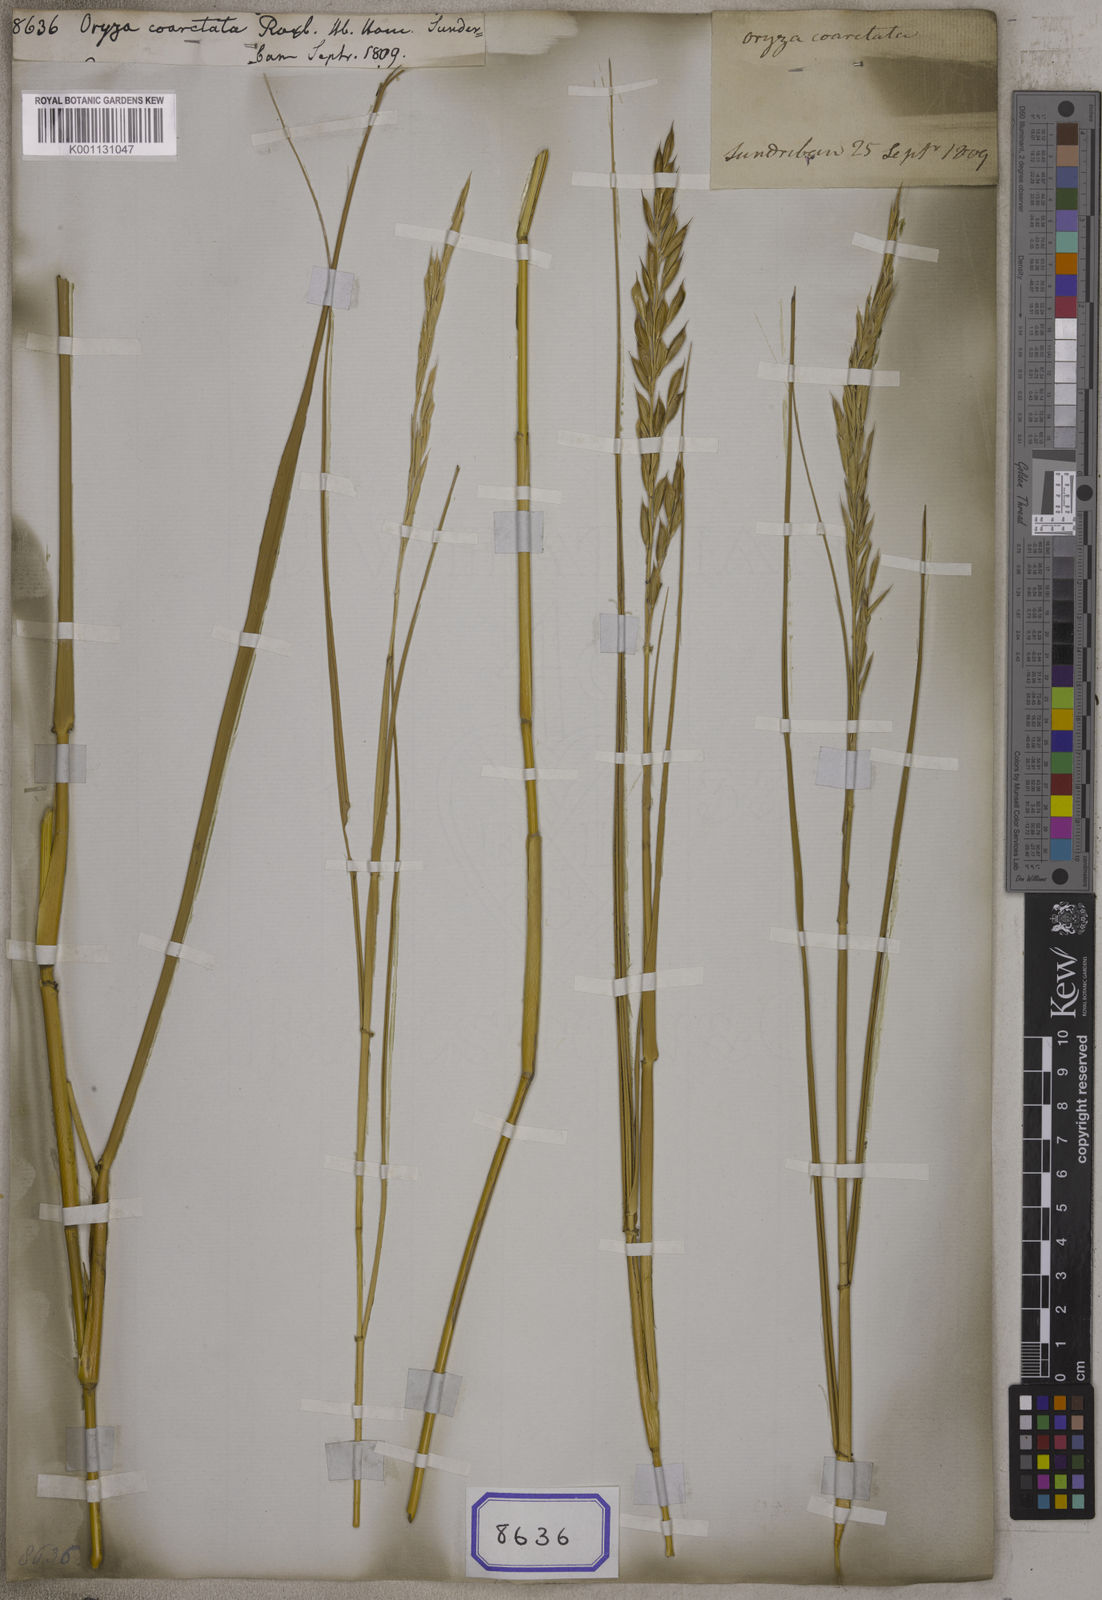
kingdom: Plantae
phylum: Tracheophyta
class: Liliopsida
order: Poales
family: Poaceae
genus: Oryza
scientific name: Oryza coarctata
